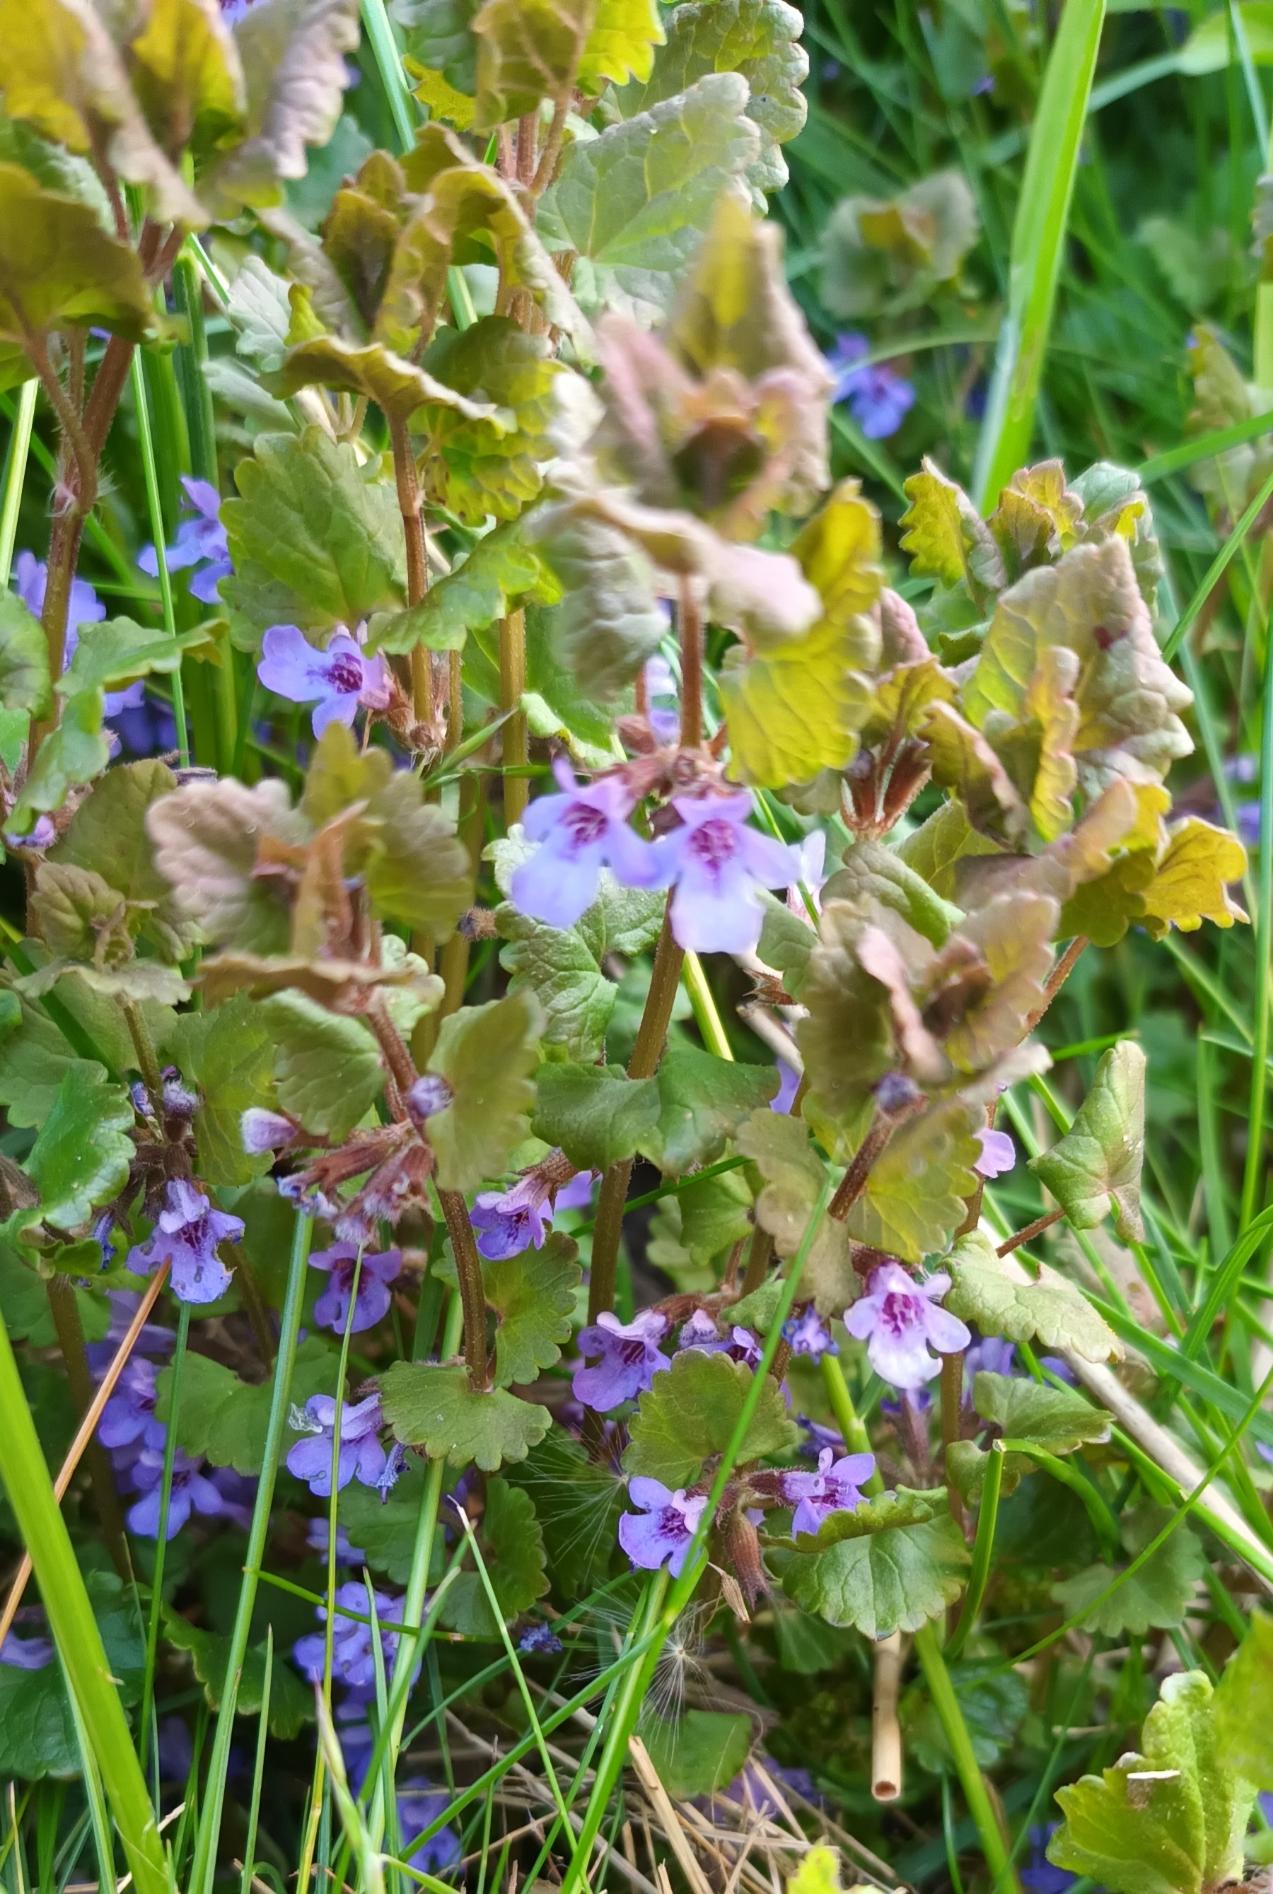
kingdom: Plantae
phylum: Tracheophyta
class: Magnoliopsida
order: Lamiales
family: Lamiaceae
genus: Glechoma
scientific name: Glechoma hederacea
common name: Korsknap
